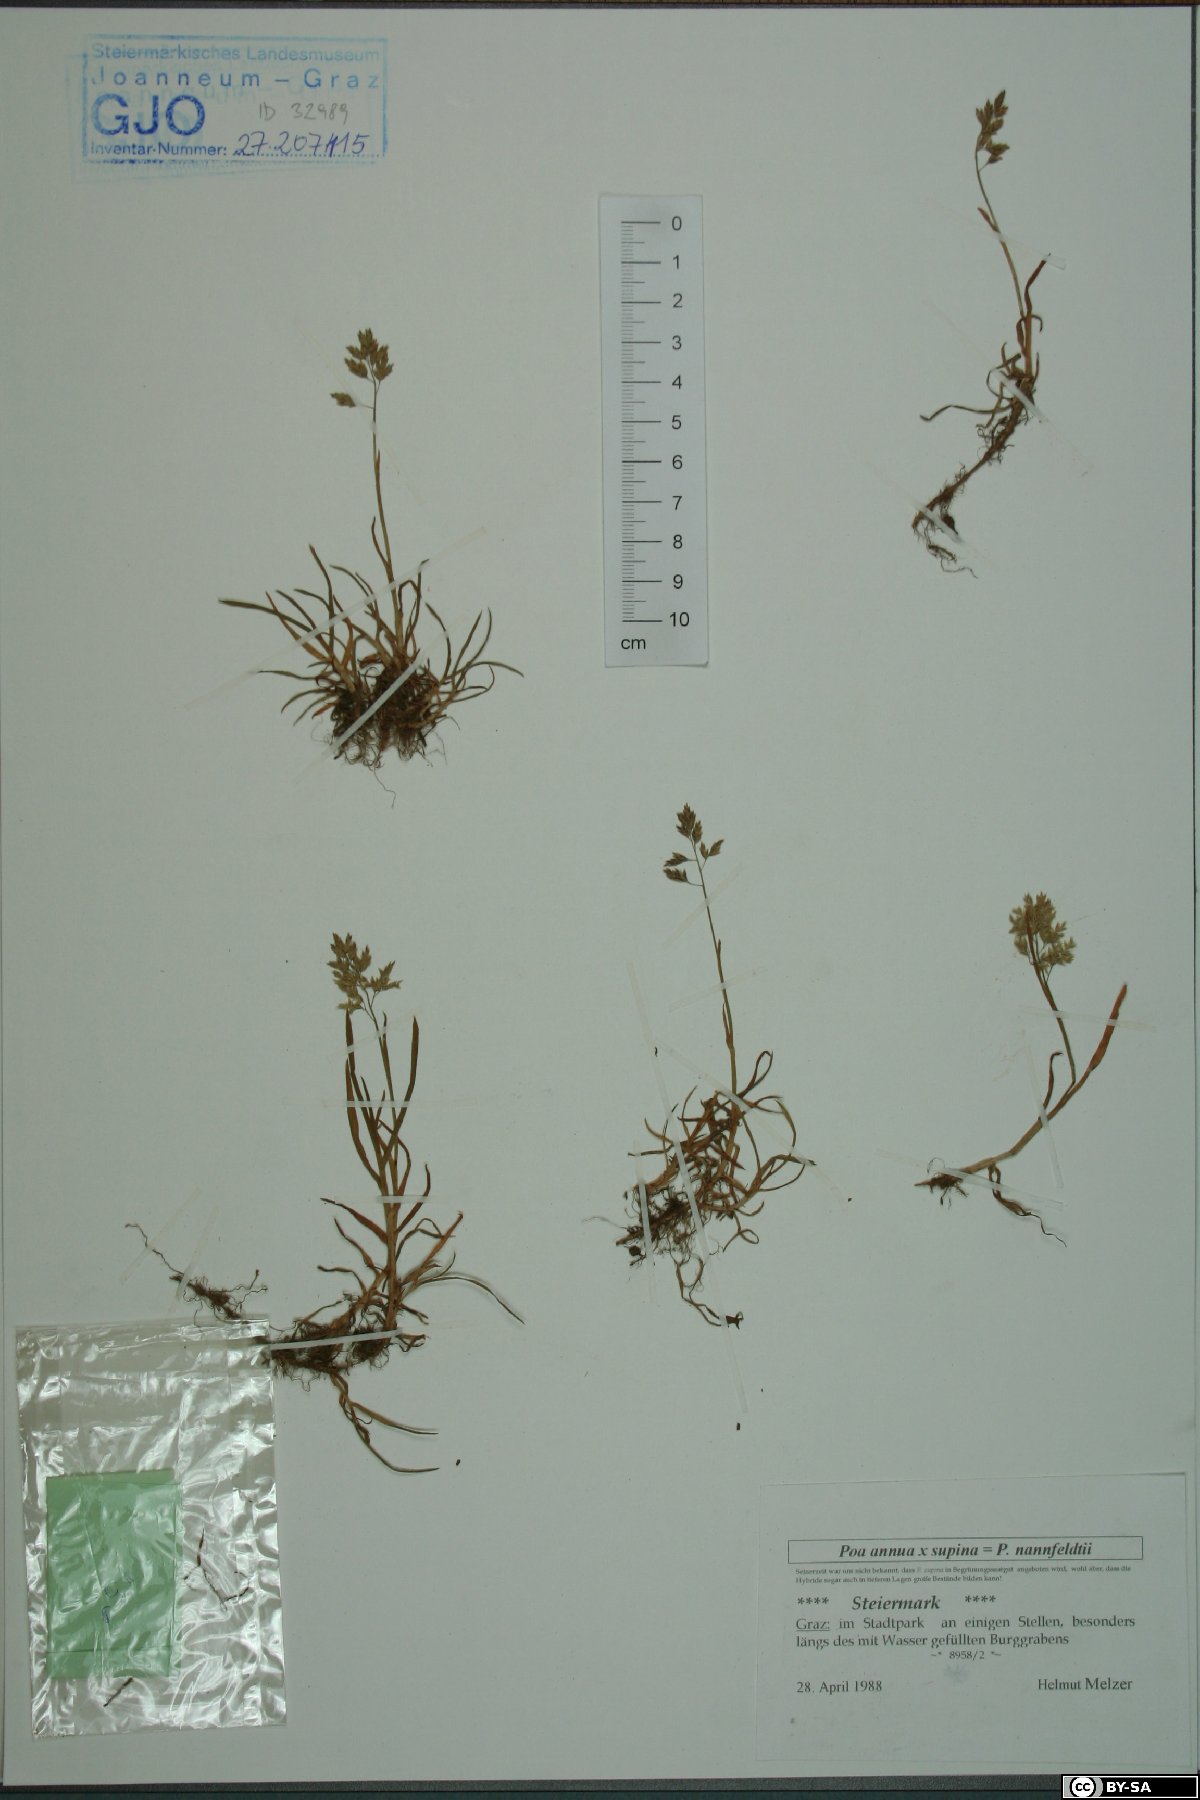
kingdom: Plantae
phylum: Tracheophyta
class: Liliopsida
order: Poales
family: Poaceae
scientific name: Poaceae
